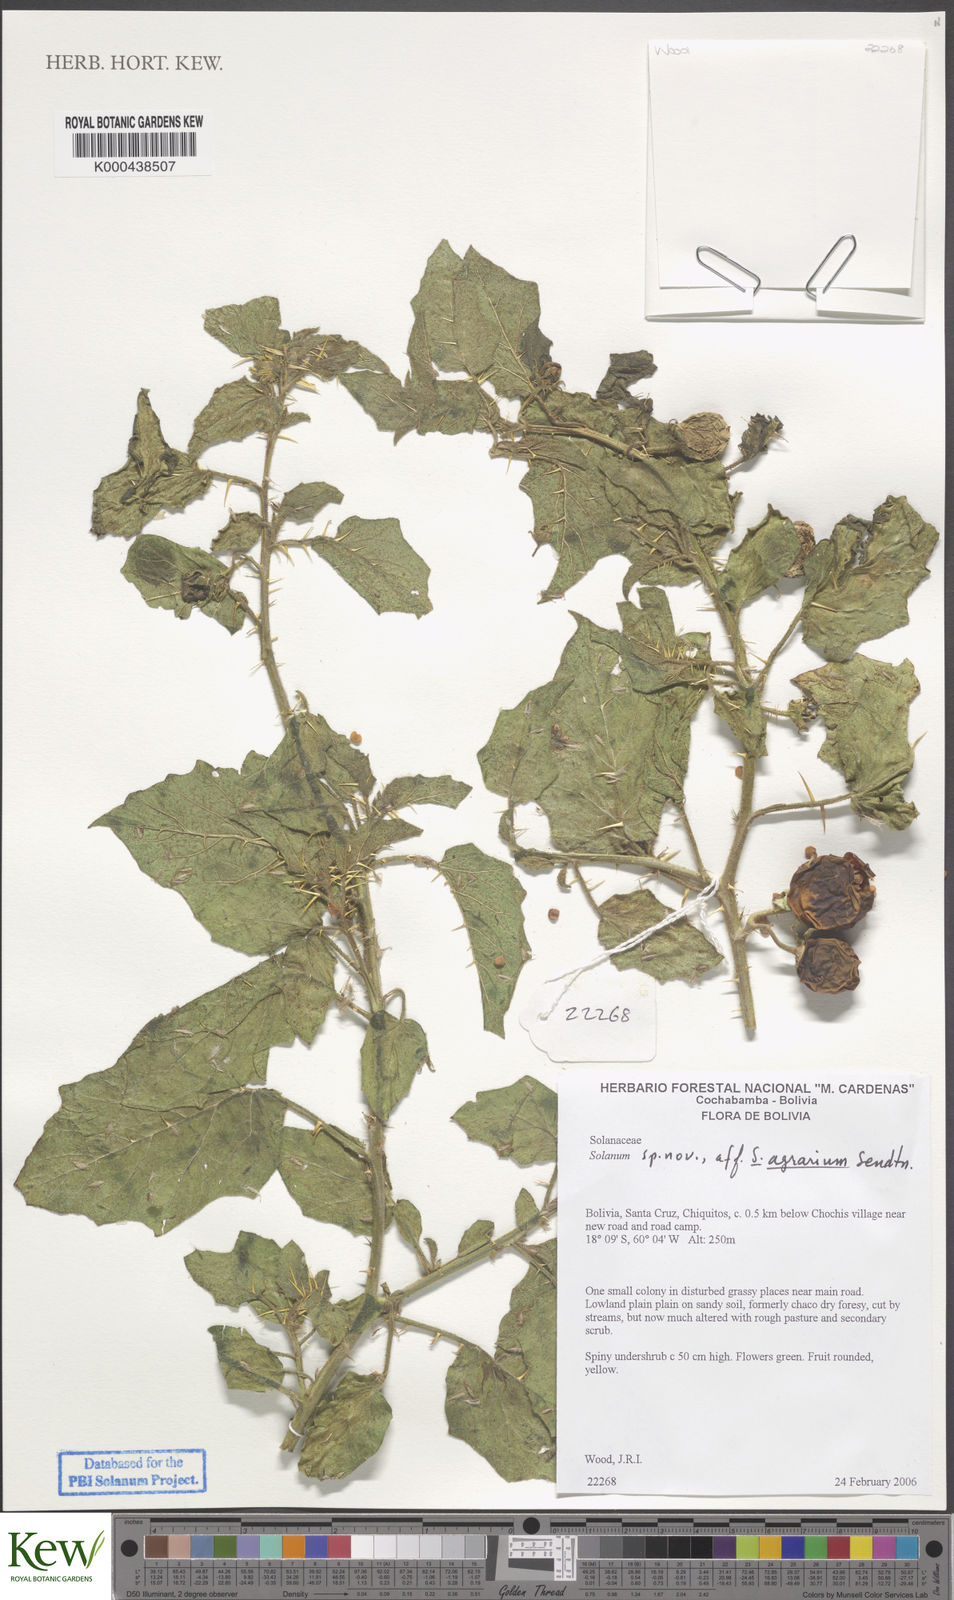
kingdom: Plantae
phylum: Tracheophyta
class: Magnoliopsida
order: Solanales
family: Solanaceae
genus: Solanum
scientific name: Solanum
